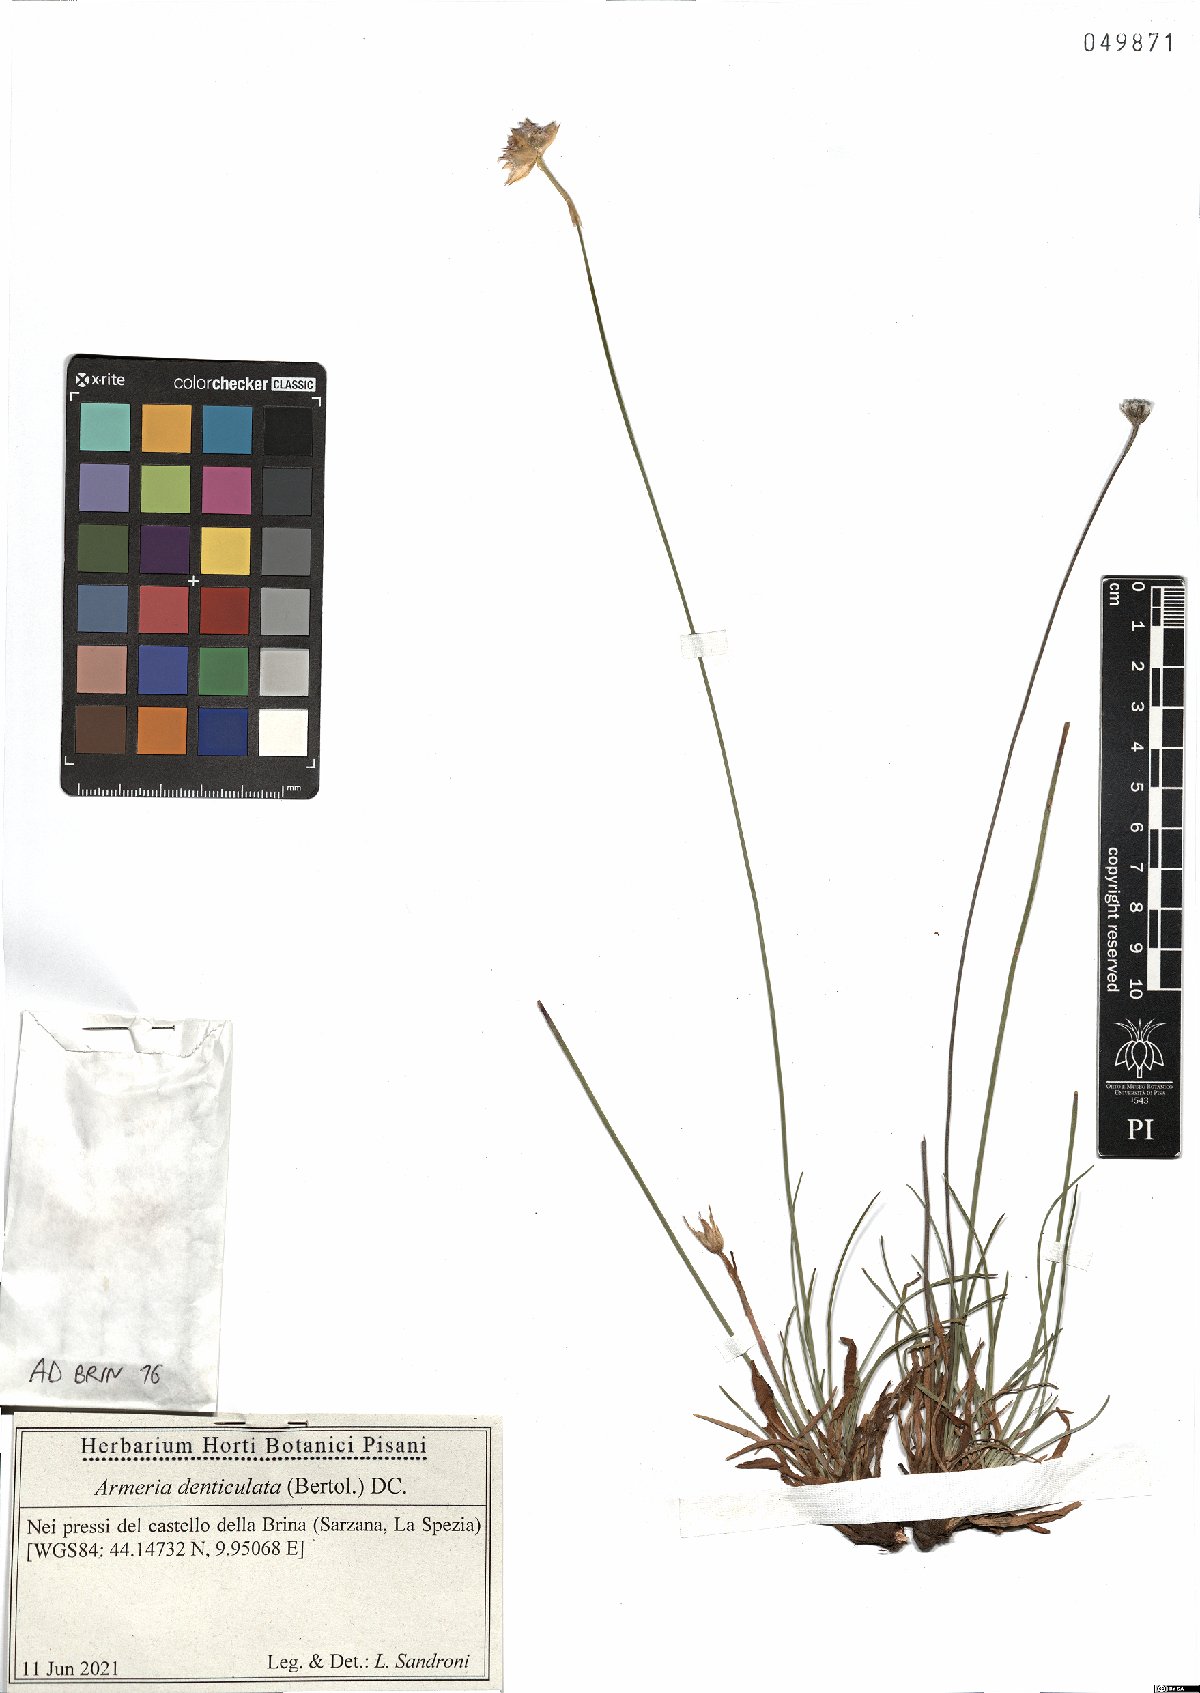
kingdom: Plantae
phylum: Tracheophyta
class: Magnoliopsida
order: Caryophyllales
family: Plumbaginaceae
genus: Armeria
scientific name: Armeria denticulata
